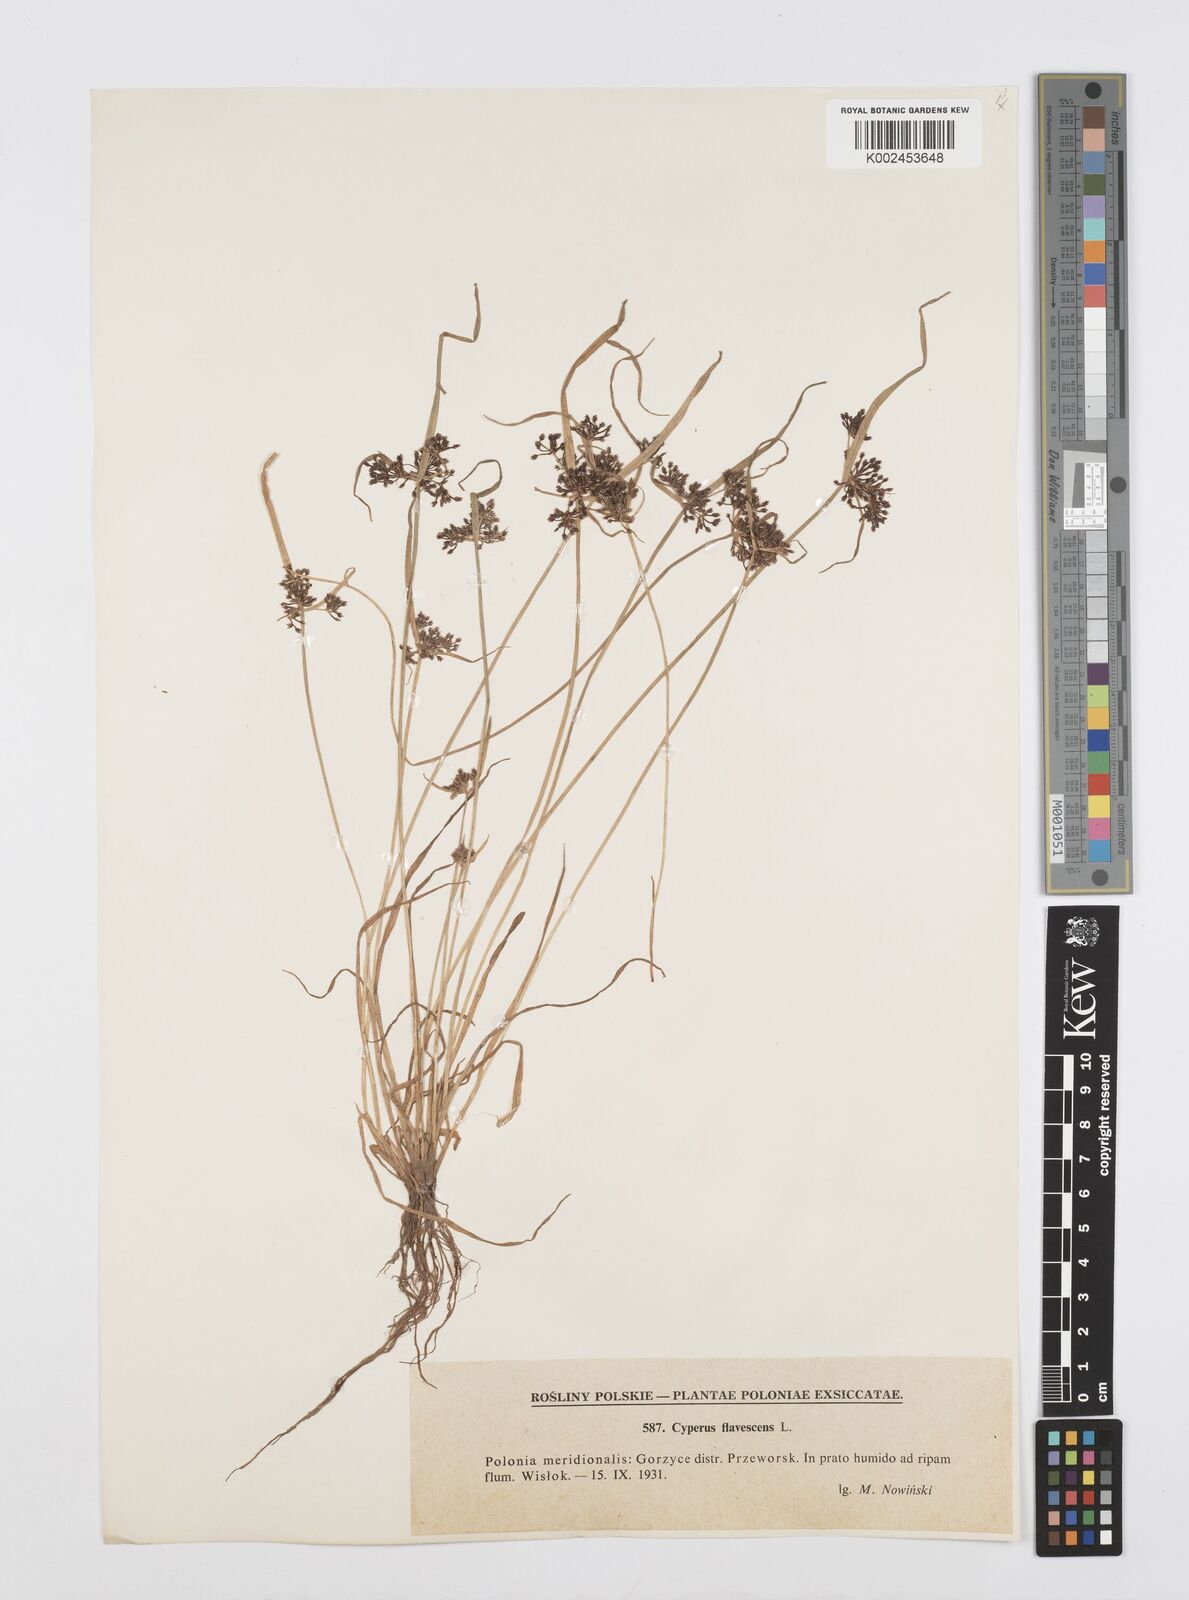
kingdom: Plantae
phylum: Tracheophyta
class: Liliopsida
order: Poales
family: Cyperaceae
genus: Cyperus
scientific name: Cyperus flavescens
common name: Yellow galingale
